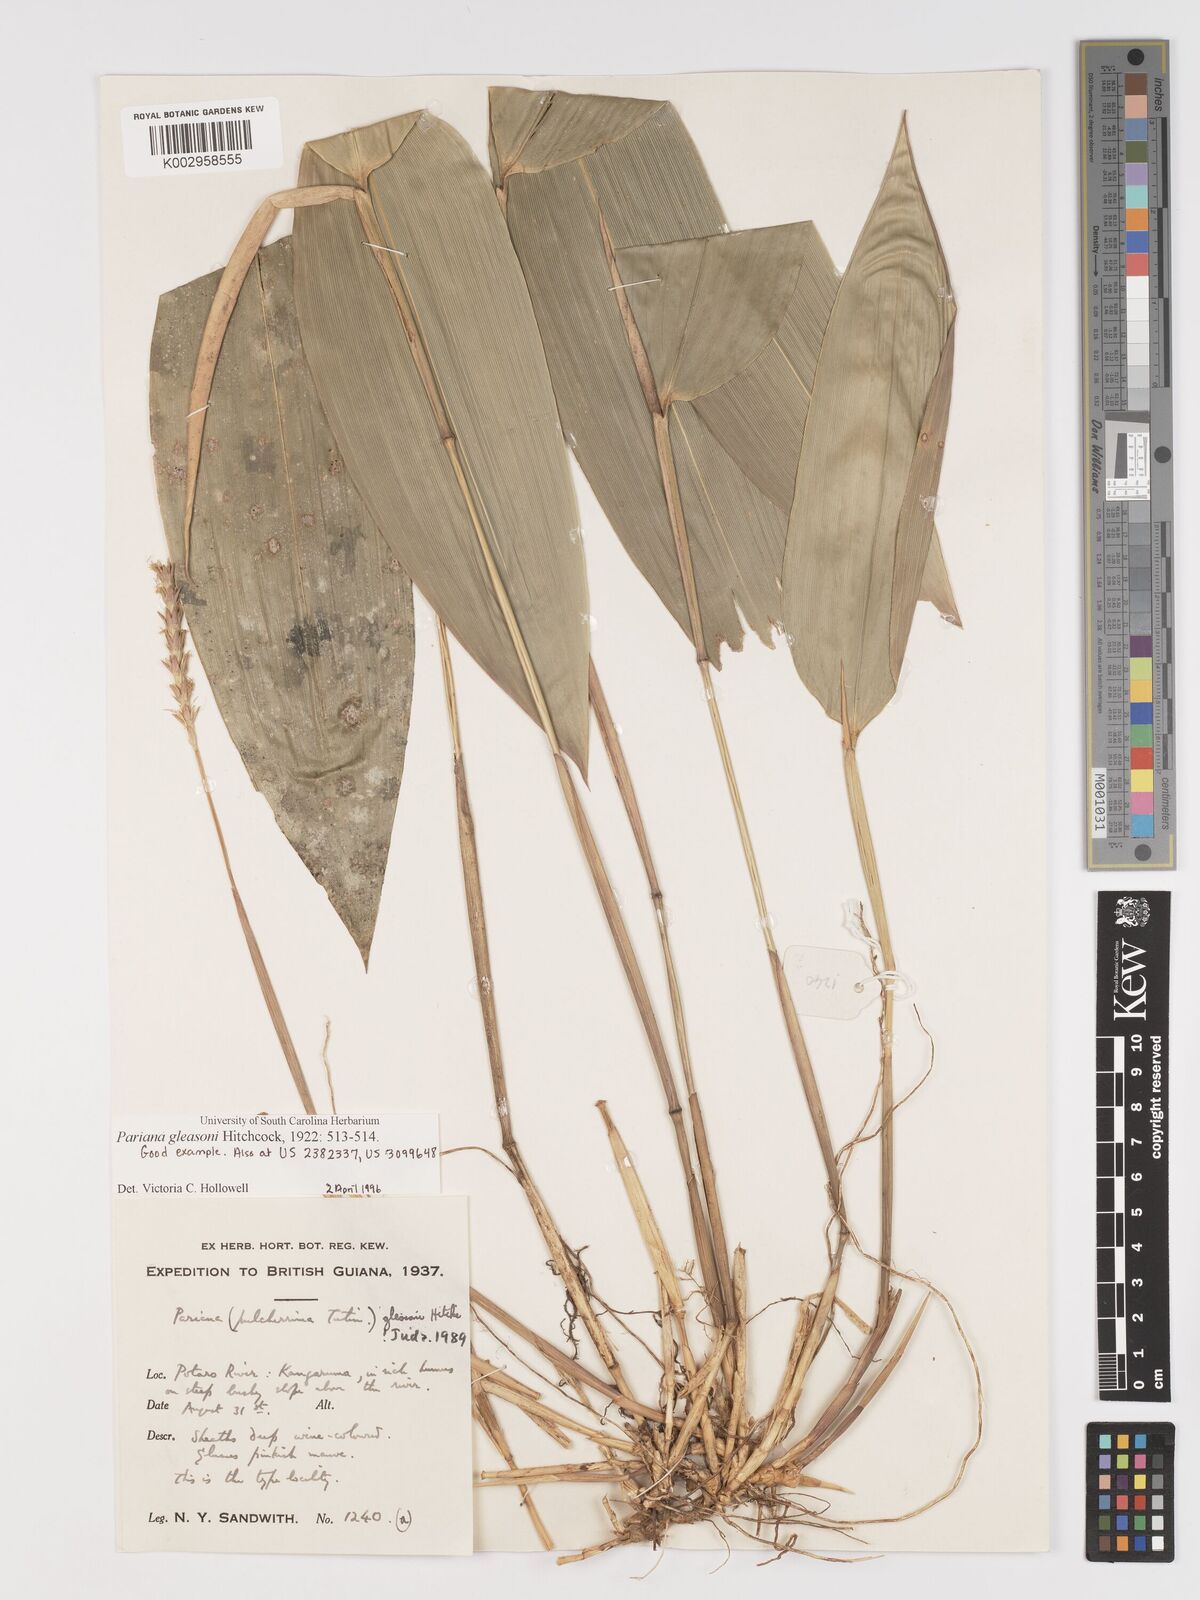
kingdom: Plantae
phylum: Tracheophyta
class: Liliopsida
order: Poales
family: Poaceae
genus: Pariana
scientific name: Pariana radiciflora
